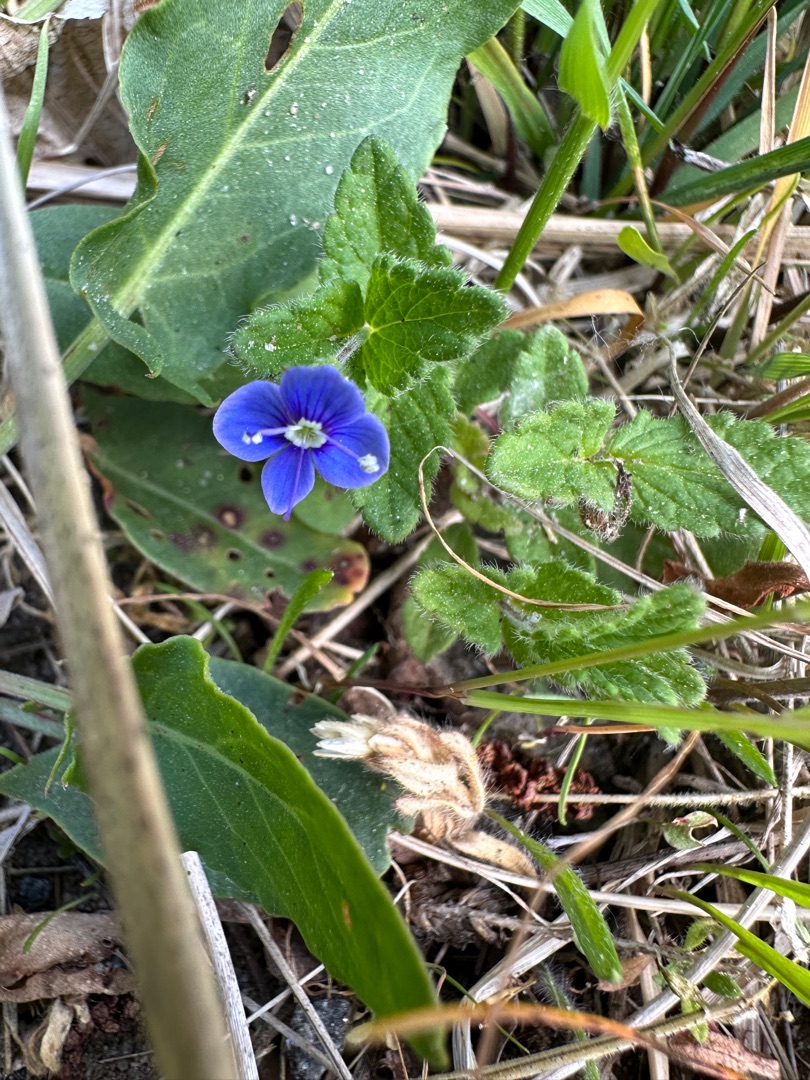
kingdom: Plantae
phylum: Tracheophyta
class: Magnoliopsida
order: Lamiales
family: Plantaginaceae
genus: Veronica
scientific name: Veronica chamaedrys
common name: Tveskægget ærenpris
